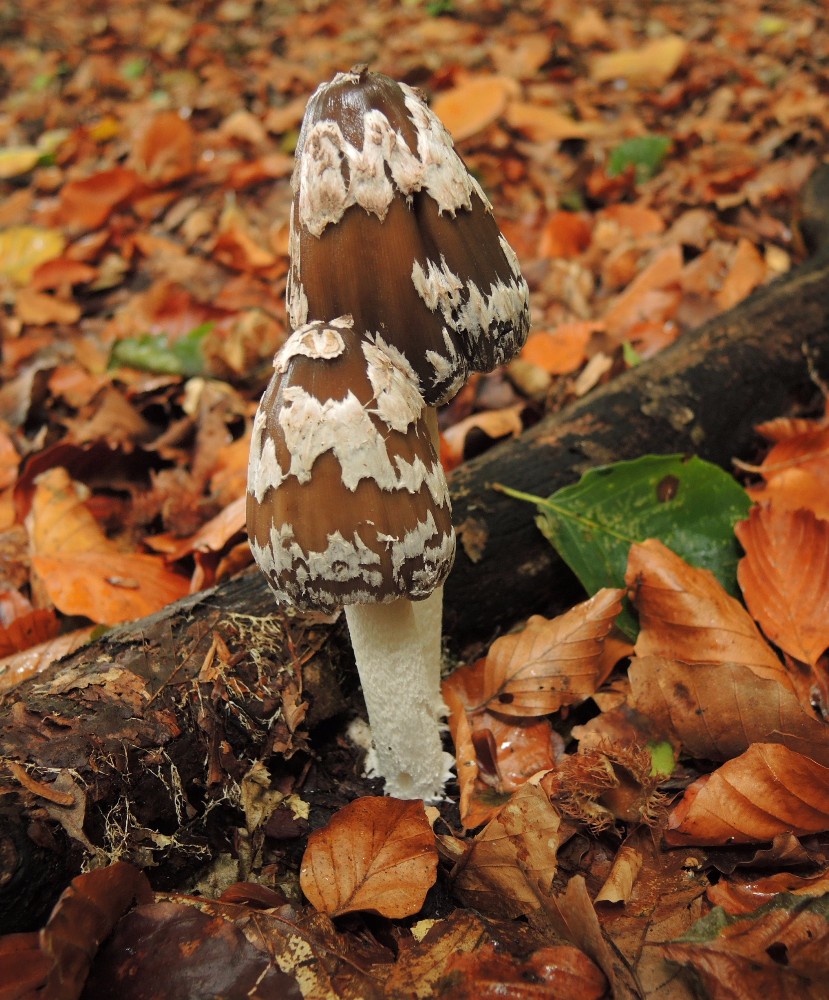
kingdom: Fungi
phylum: Basidiomycota
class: Agaricomycetes
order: Agaricales
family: Psathyrellaceae
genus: Coprinopsis
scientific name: Coprinopsis picacea
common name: skade-blækhat
